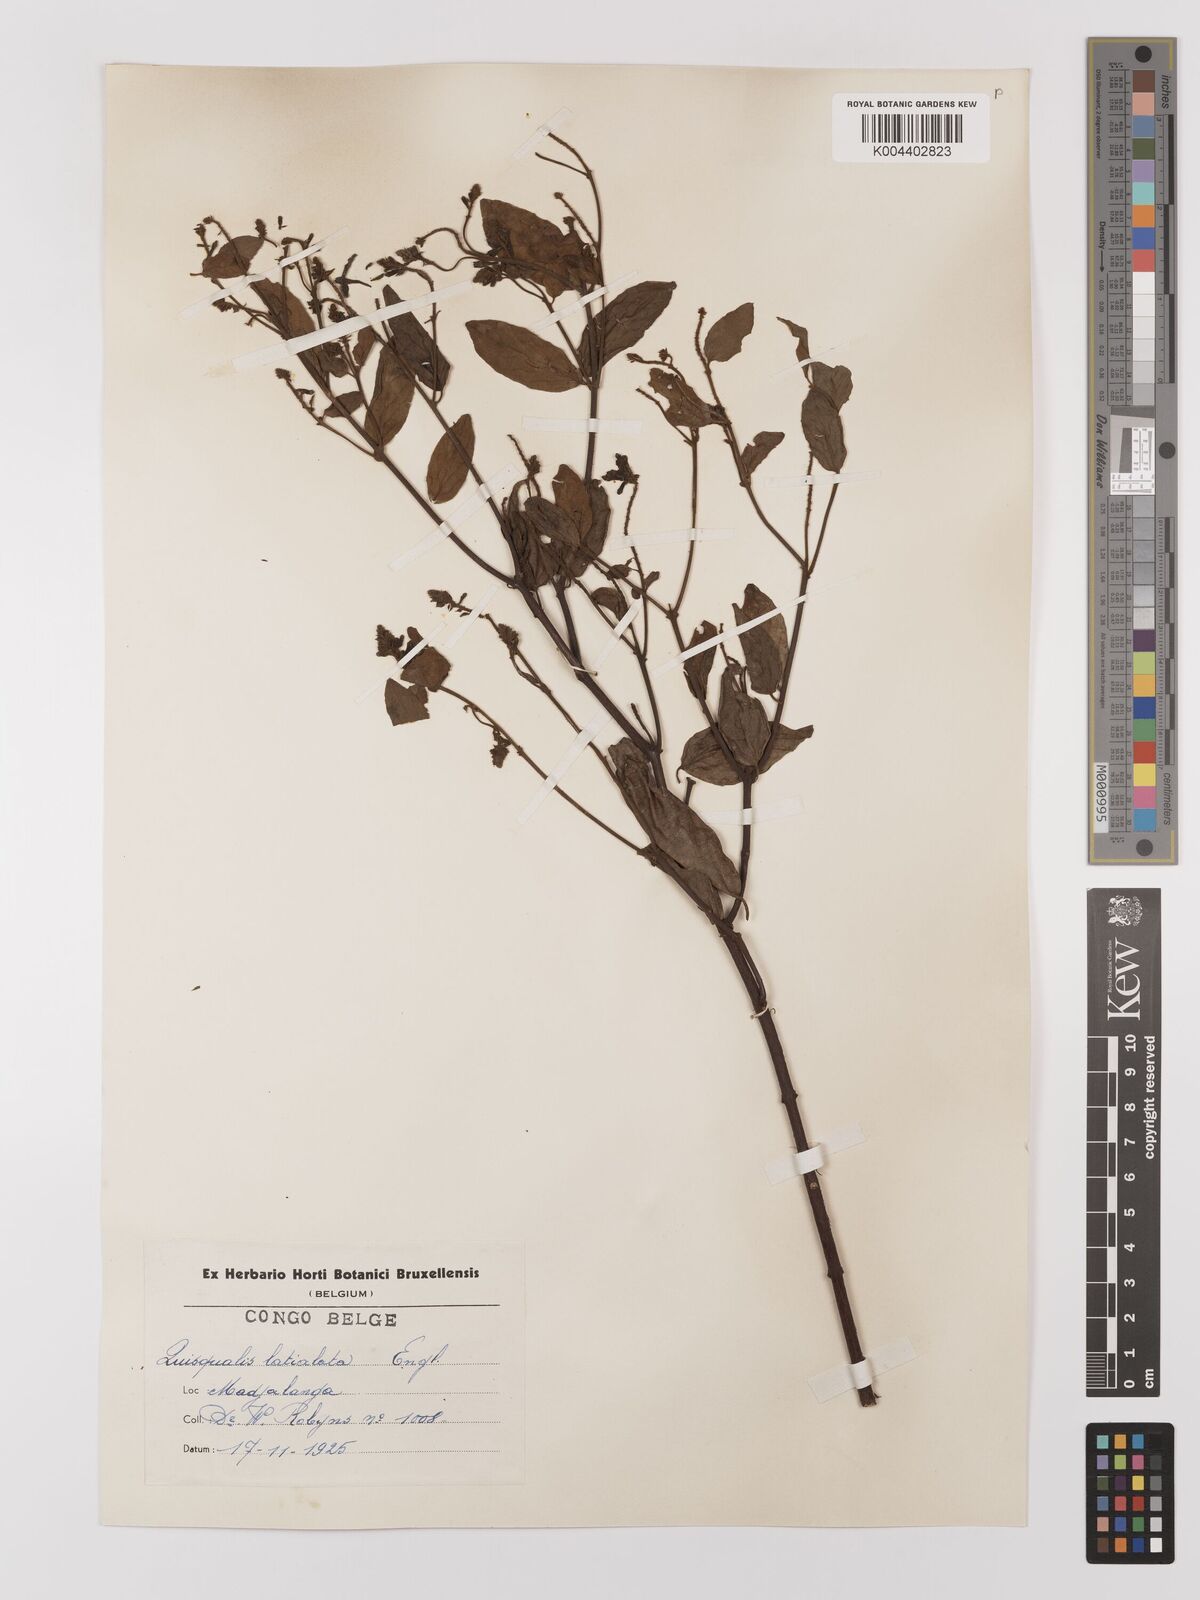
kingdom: Plantae
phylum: Tracheophyta
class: Magnoliopsida
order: Myrtales
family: Combretaceae
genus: Combretum
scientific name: Combretum latialatum
